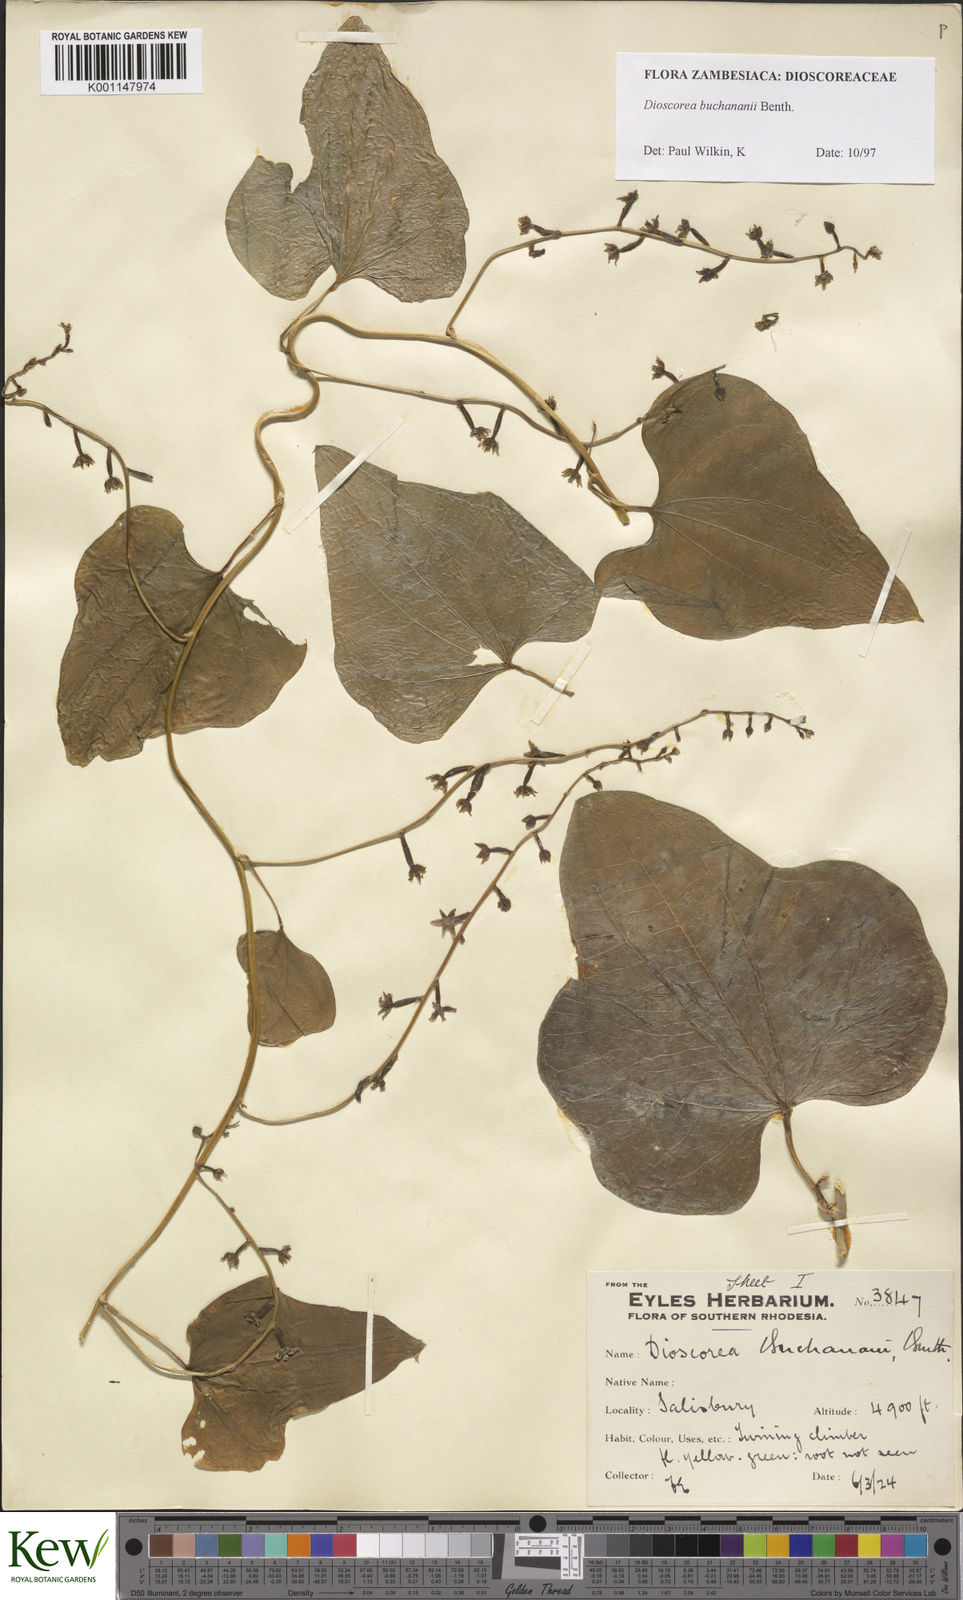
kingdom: Plantae
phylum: Tracheophyta
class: Liliopsida
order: Dioscoreales
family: Dioscoreaceae
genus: Dioscorea
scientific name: Dioscorea buchananii
